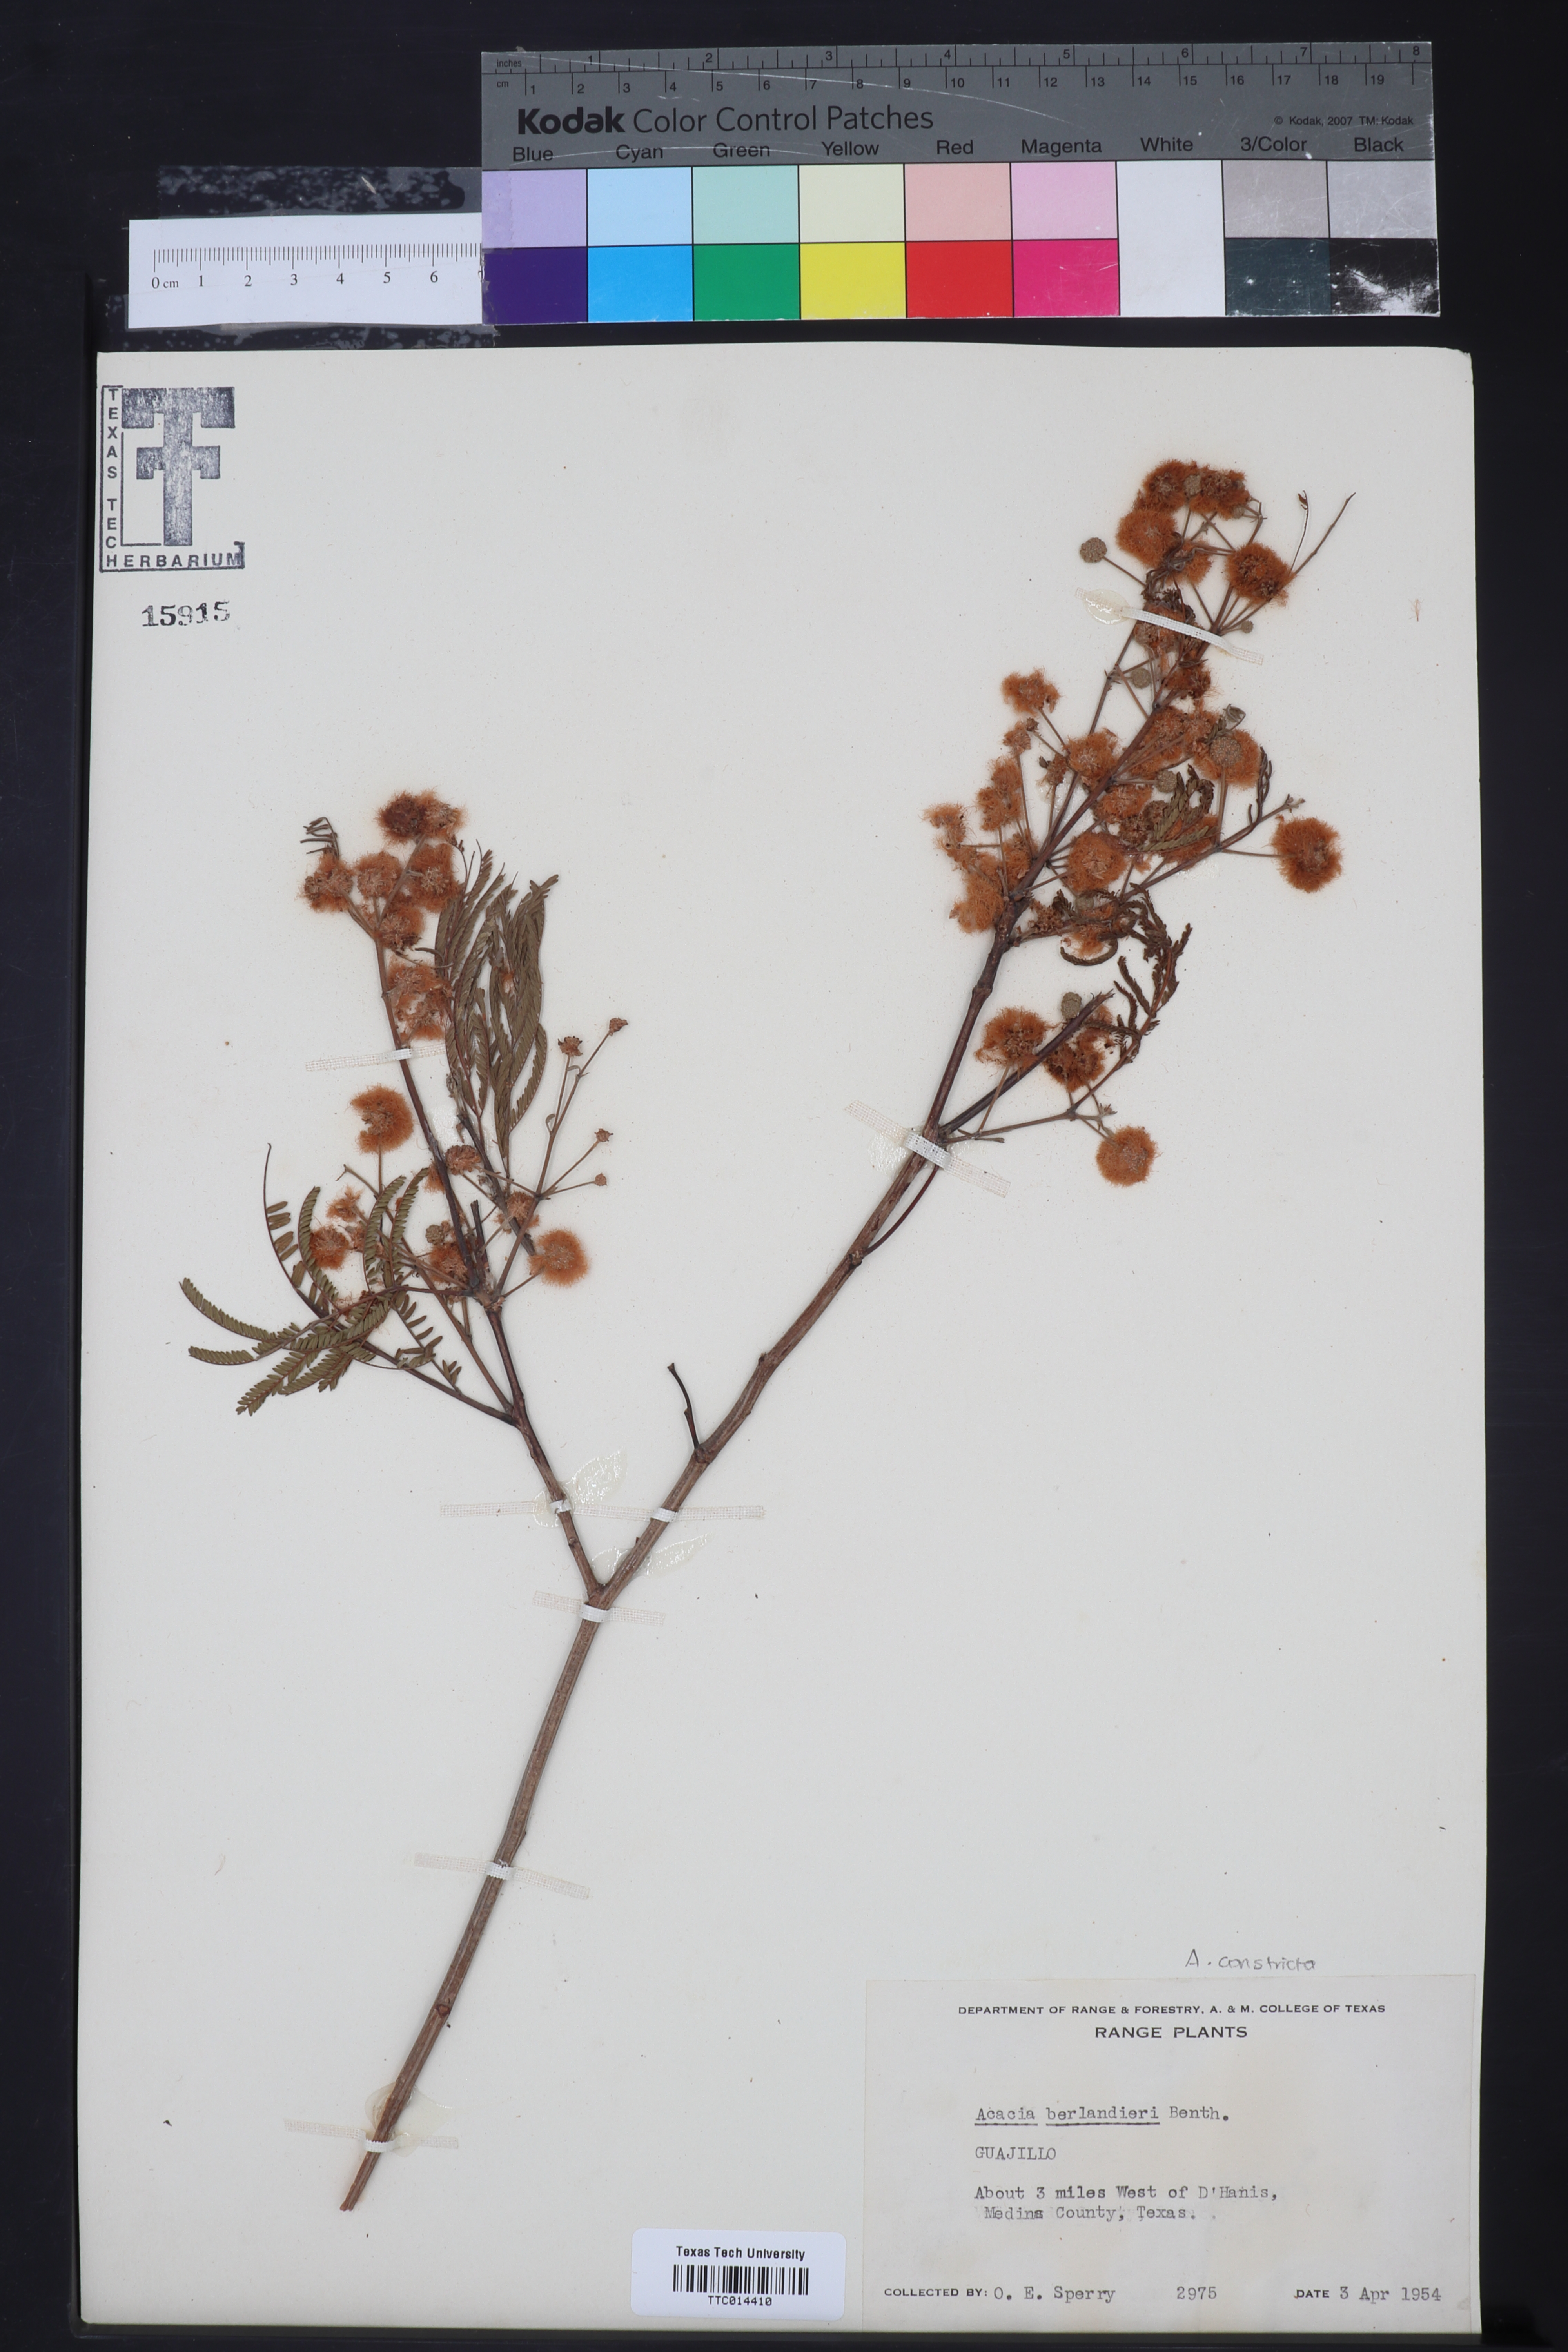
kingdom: Plantae
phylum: Tracheophyta
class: Magnoliopsida
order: Fabales
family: Fabaceae
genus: Senegalia
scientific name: Senegalia berlandieri
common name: Berlandier acacia
